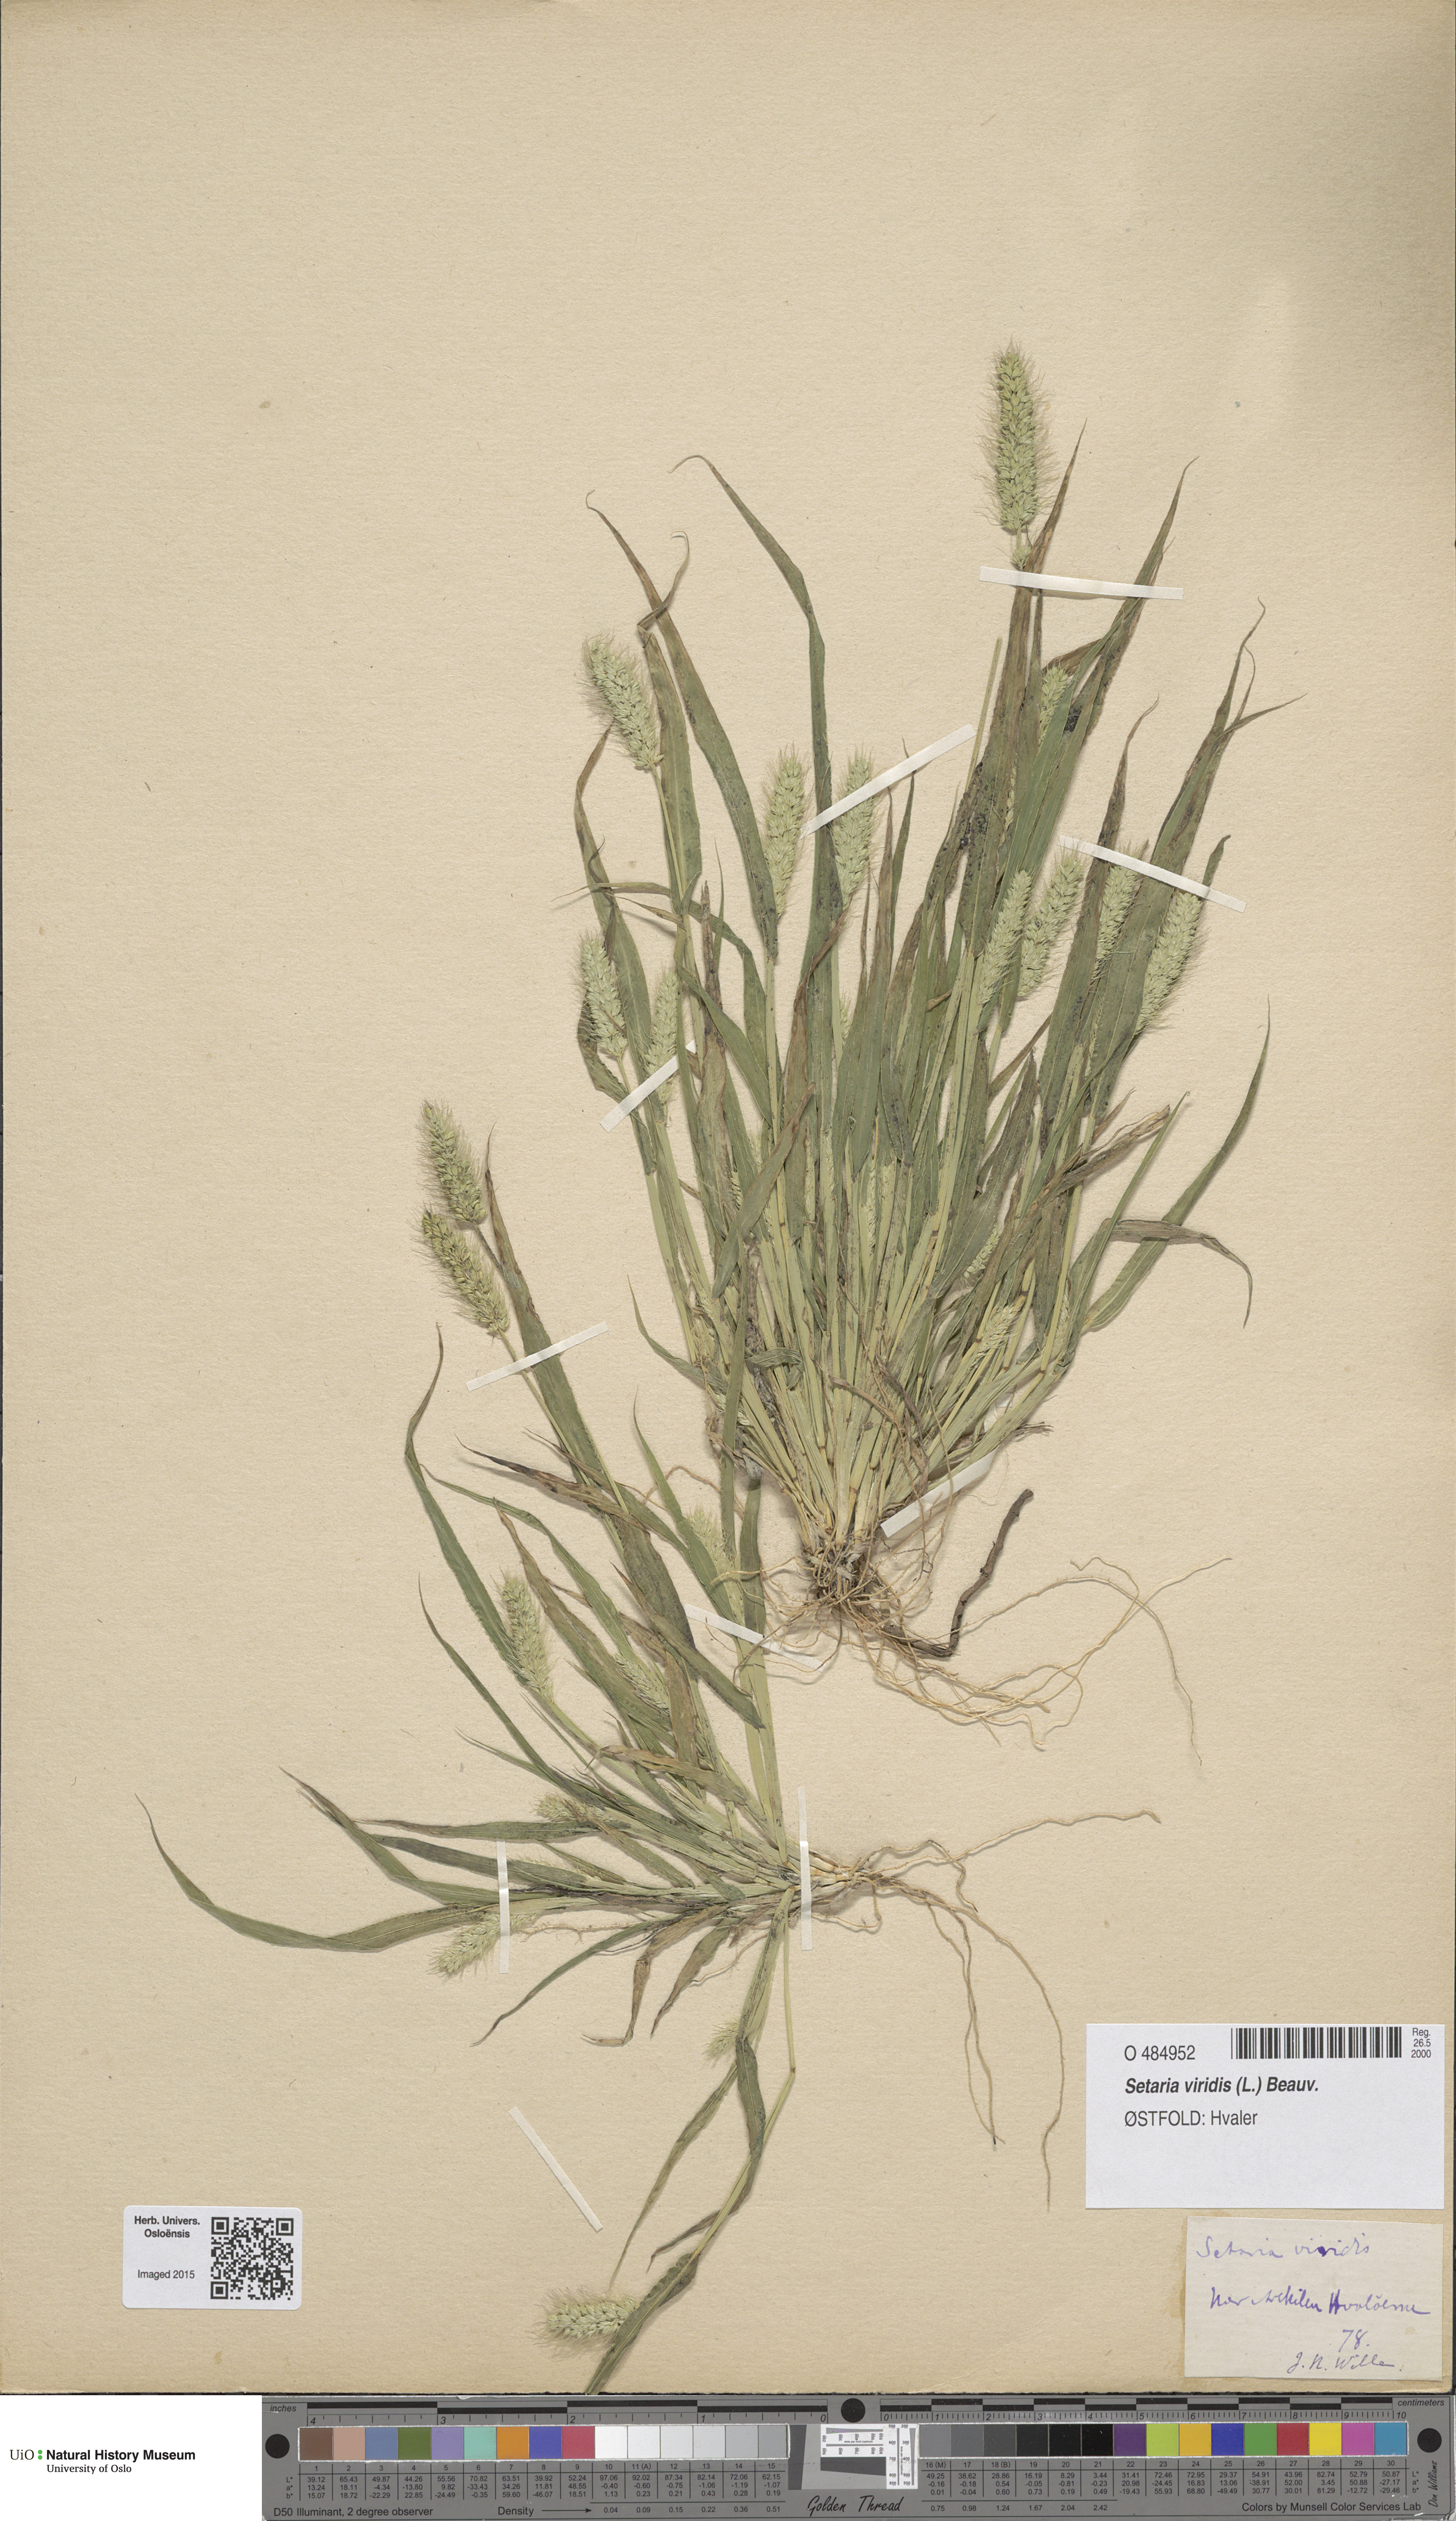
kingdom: Plantae
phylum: Tracheophyta
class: Liliopsida
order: Poales
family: Poaceae
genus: Setaria
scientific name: Setaria viridis
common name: Green bristlegrass
